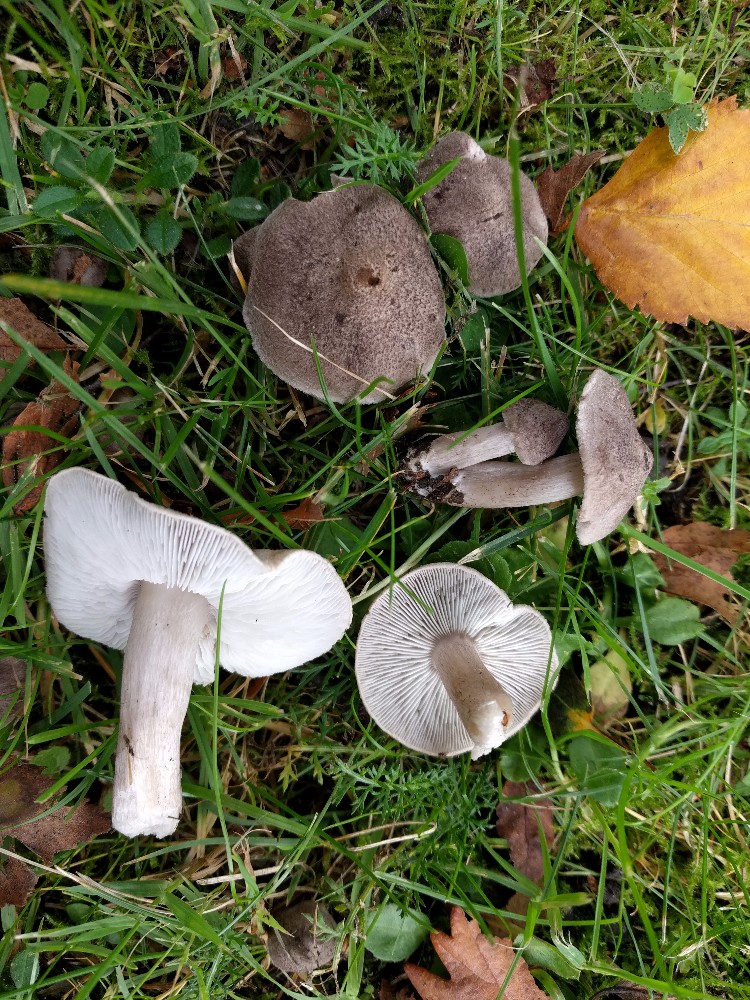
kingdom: Fungi
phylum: Basidiomycota
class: Agaricomycetes
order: Agaricales
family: Tricholomataceae
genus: Tricholoma
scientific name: Tricholoma terreum
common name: jordfarvet ridderhat
